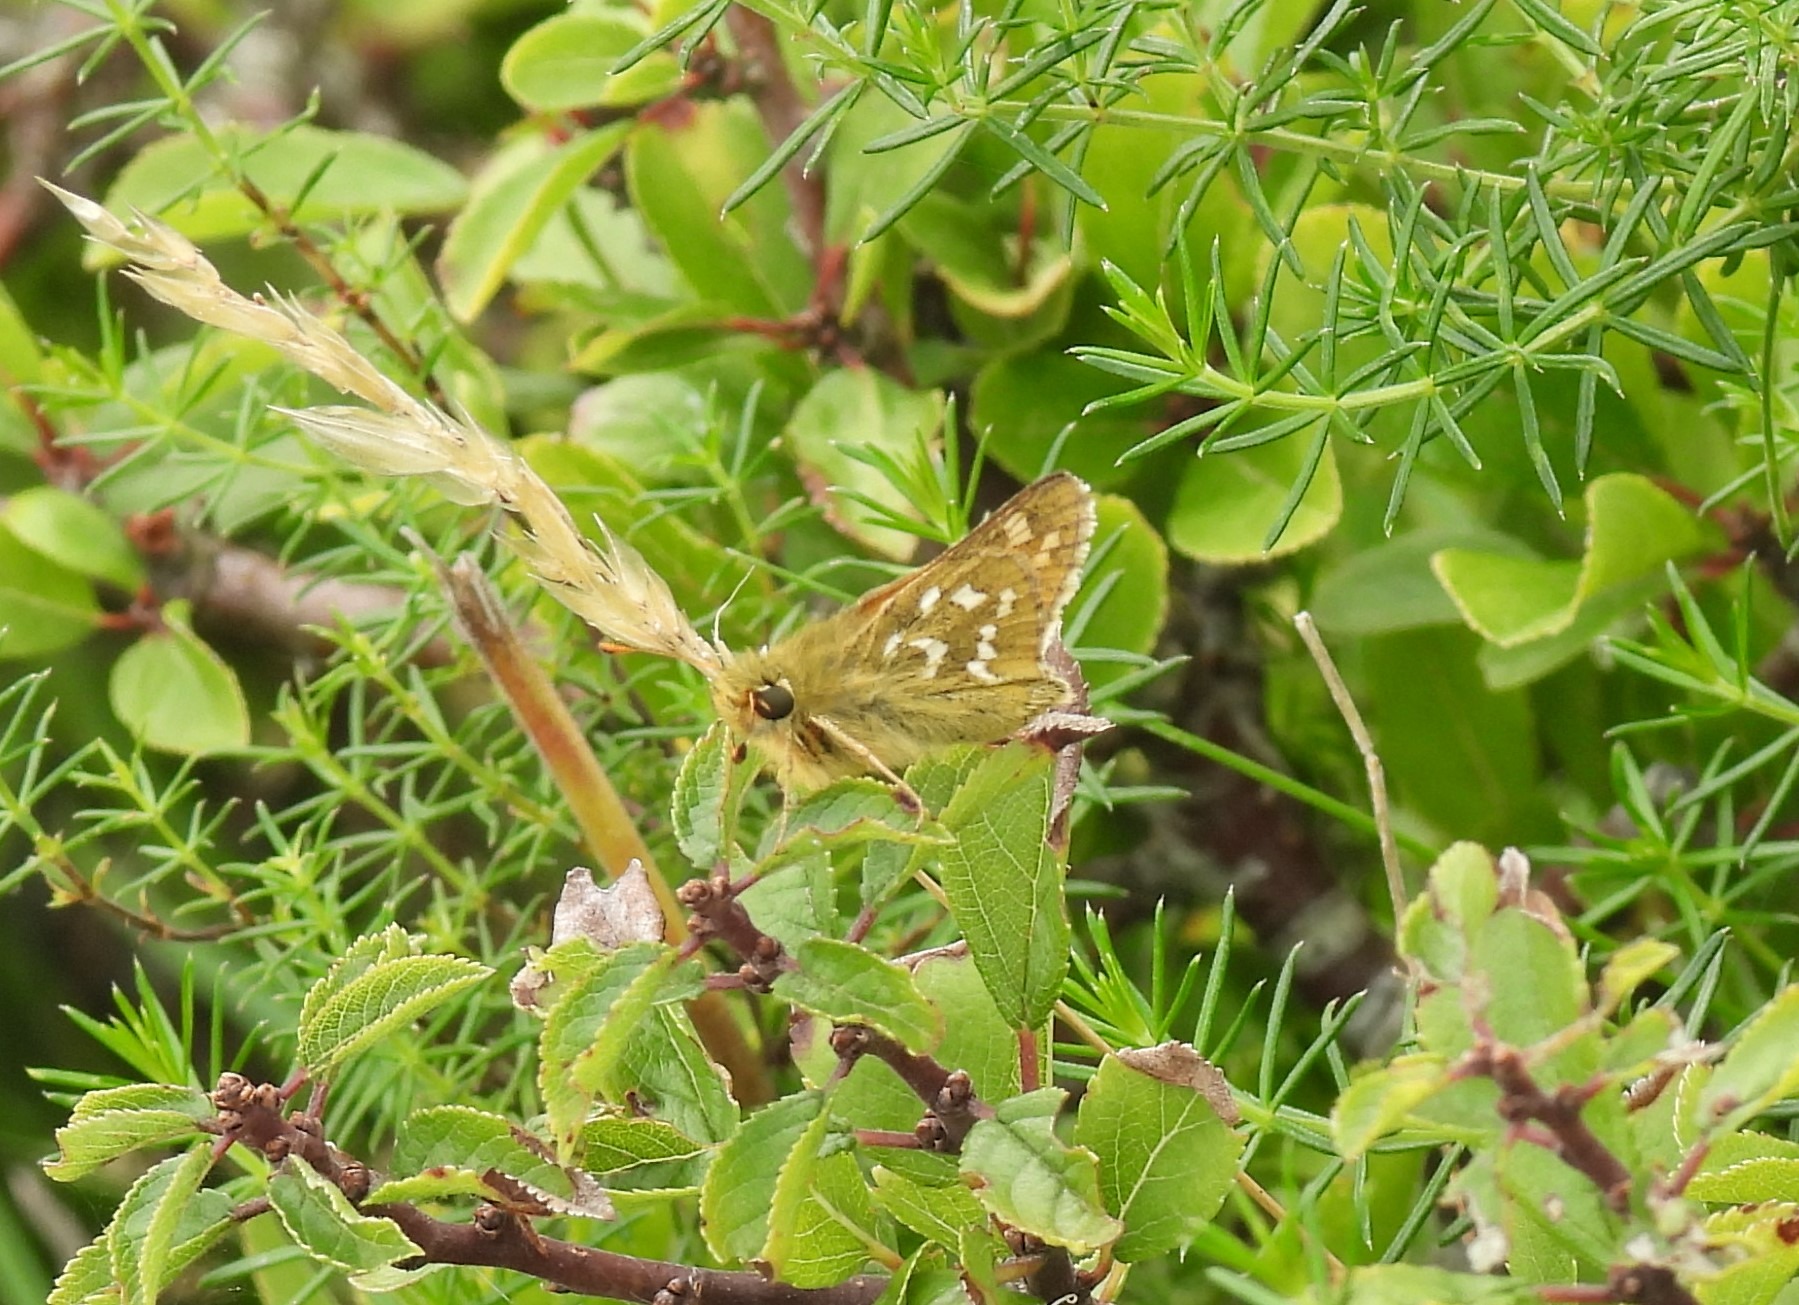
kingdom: Animalia
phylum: Arthropoda
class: Insecta
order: Lepidoptera
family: Hesperiidae
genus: Hesperia
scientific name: Hesperia comma
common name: Kommabredpande
